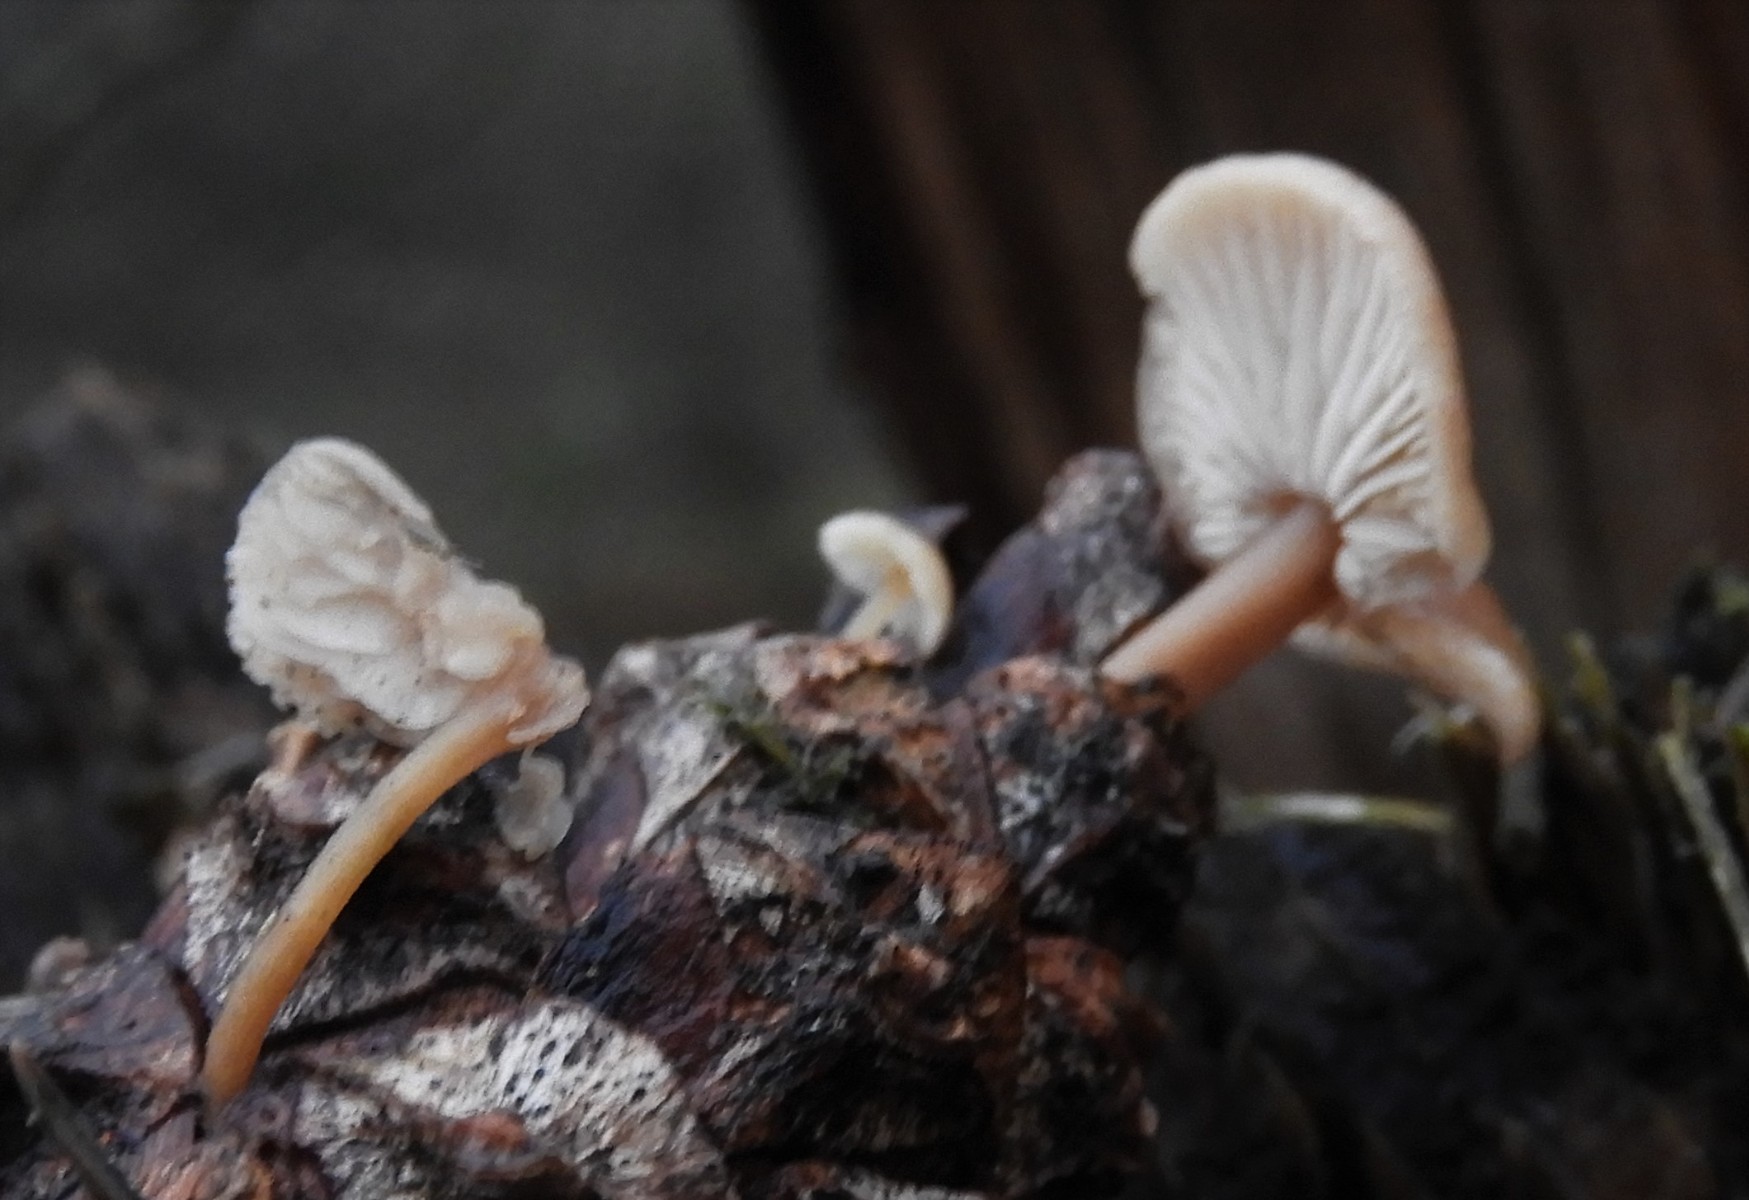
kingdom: Fungi
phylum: Basidiomycota
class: Agaricomycetes
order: Agaricales
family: Marasmiaceae
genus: Baeospora
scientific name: Baeospora myosura
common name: koglebruskhat
